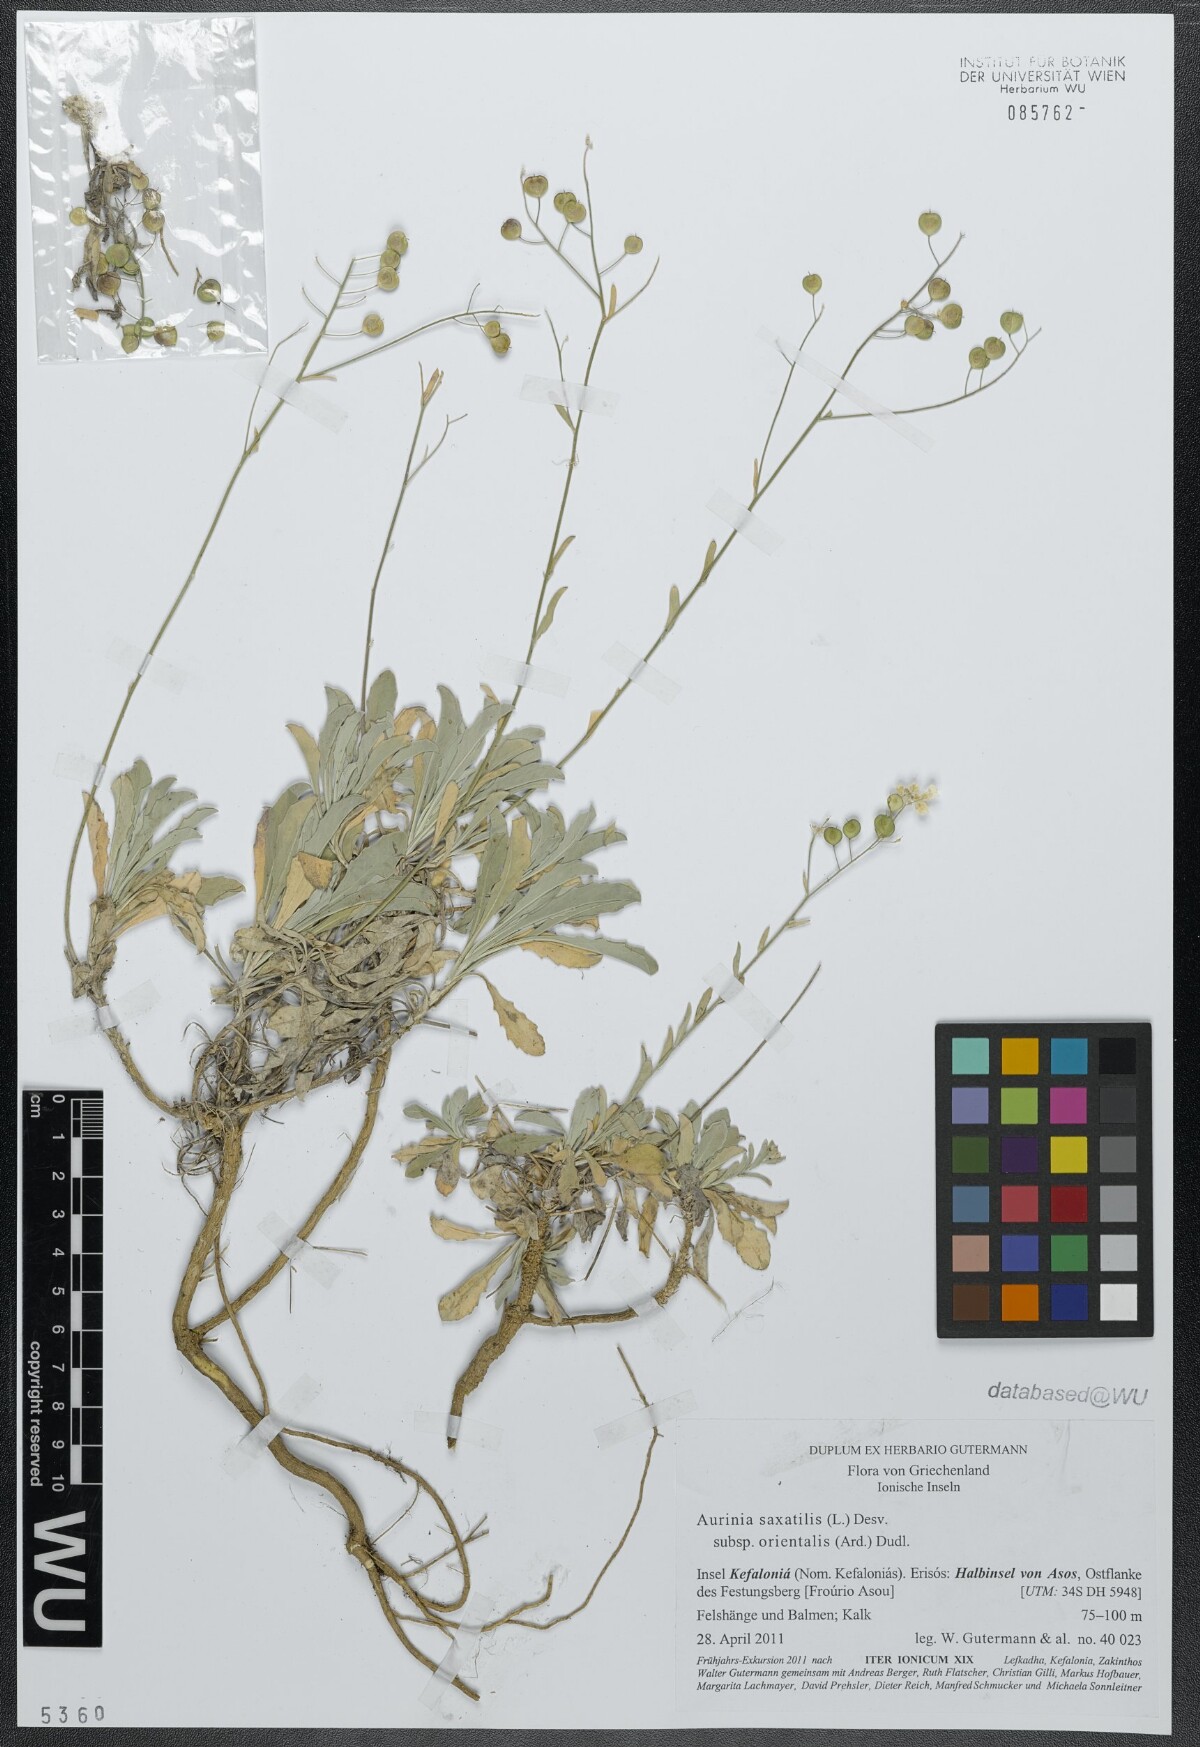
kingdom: Plantae
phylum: Tracheophyta
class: Magnoliopsida
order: Brassicales
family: Brassicaceae
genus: Aurinia
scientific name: Aurinia saxatilis
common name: Golden-tuft alyssum
